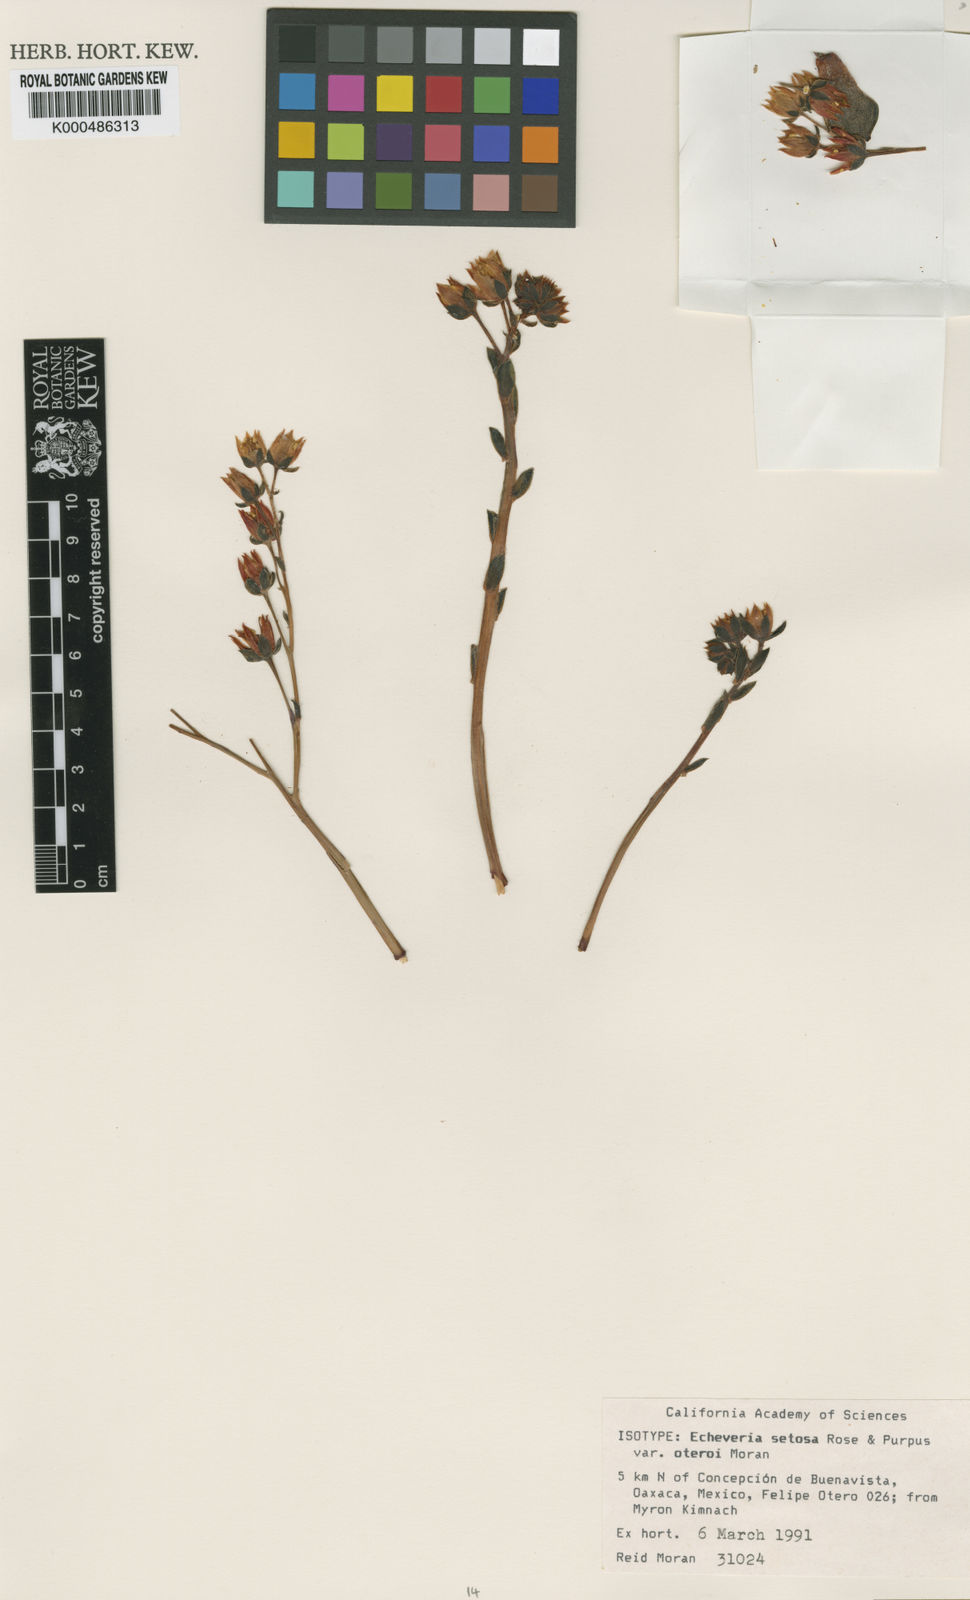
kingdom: Plantae
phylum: Tracheophyta
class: Magnoliopsida
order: Saxifragales
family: Crassulaceae
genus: Echeveria
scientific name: Echeveria setosa
